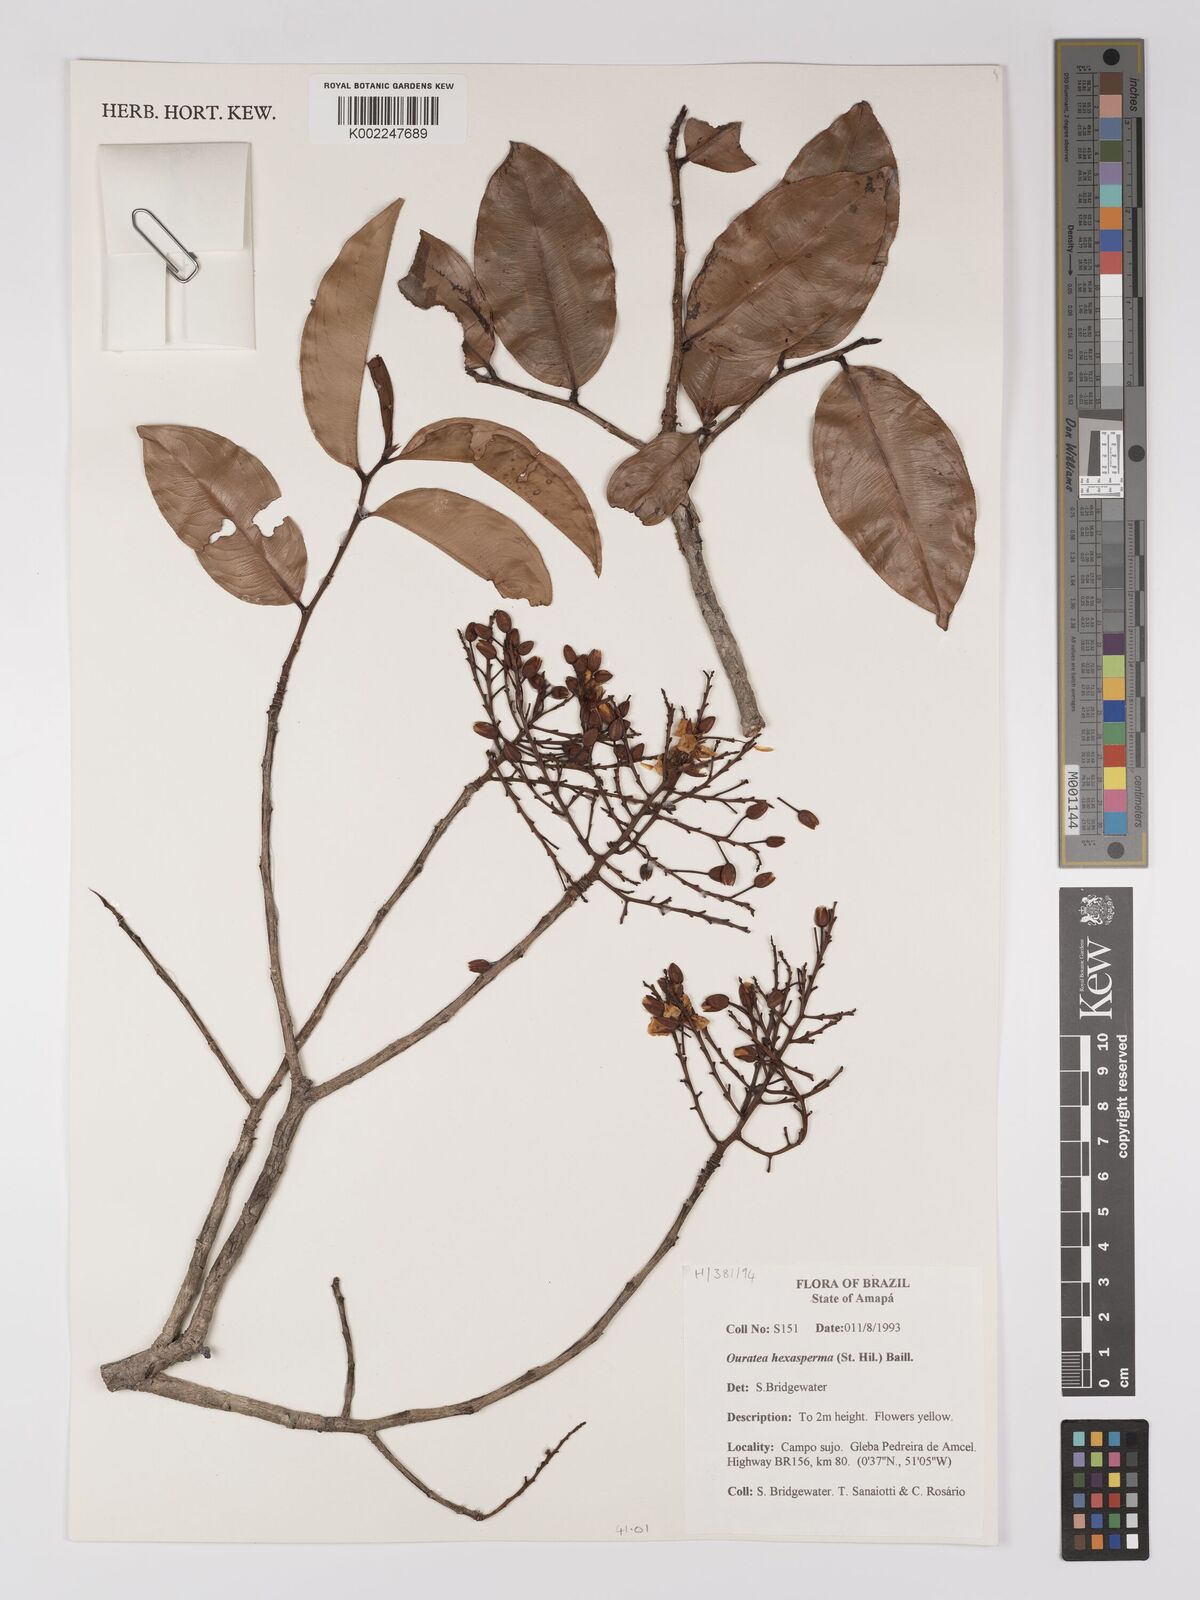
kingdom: Plantae
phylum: Tracheophyta
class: Magnoliopsida
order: Malpighiales
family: Ochnaceae
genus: Ouratea
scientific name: Ouratea hexasperma
